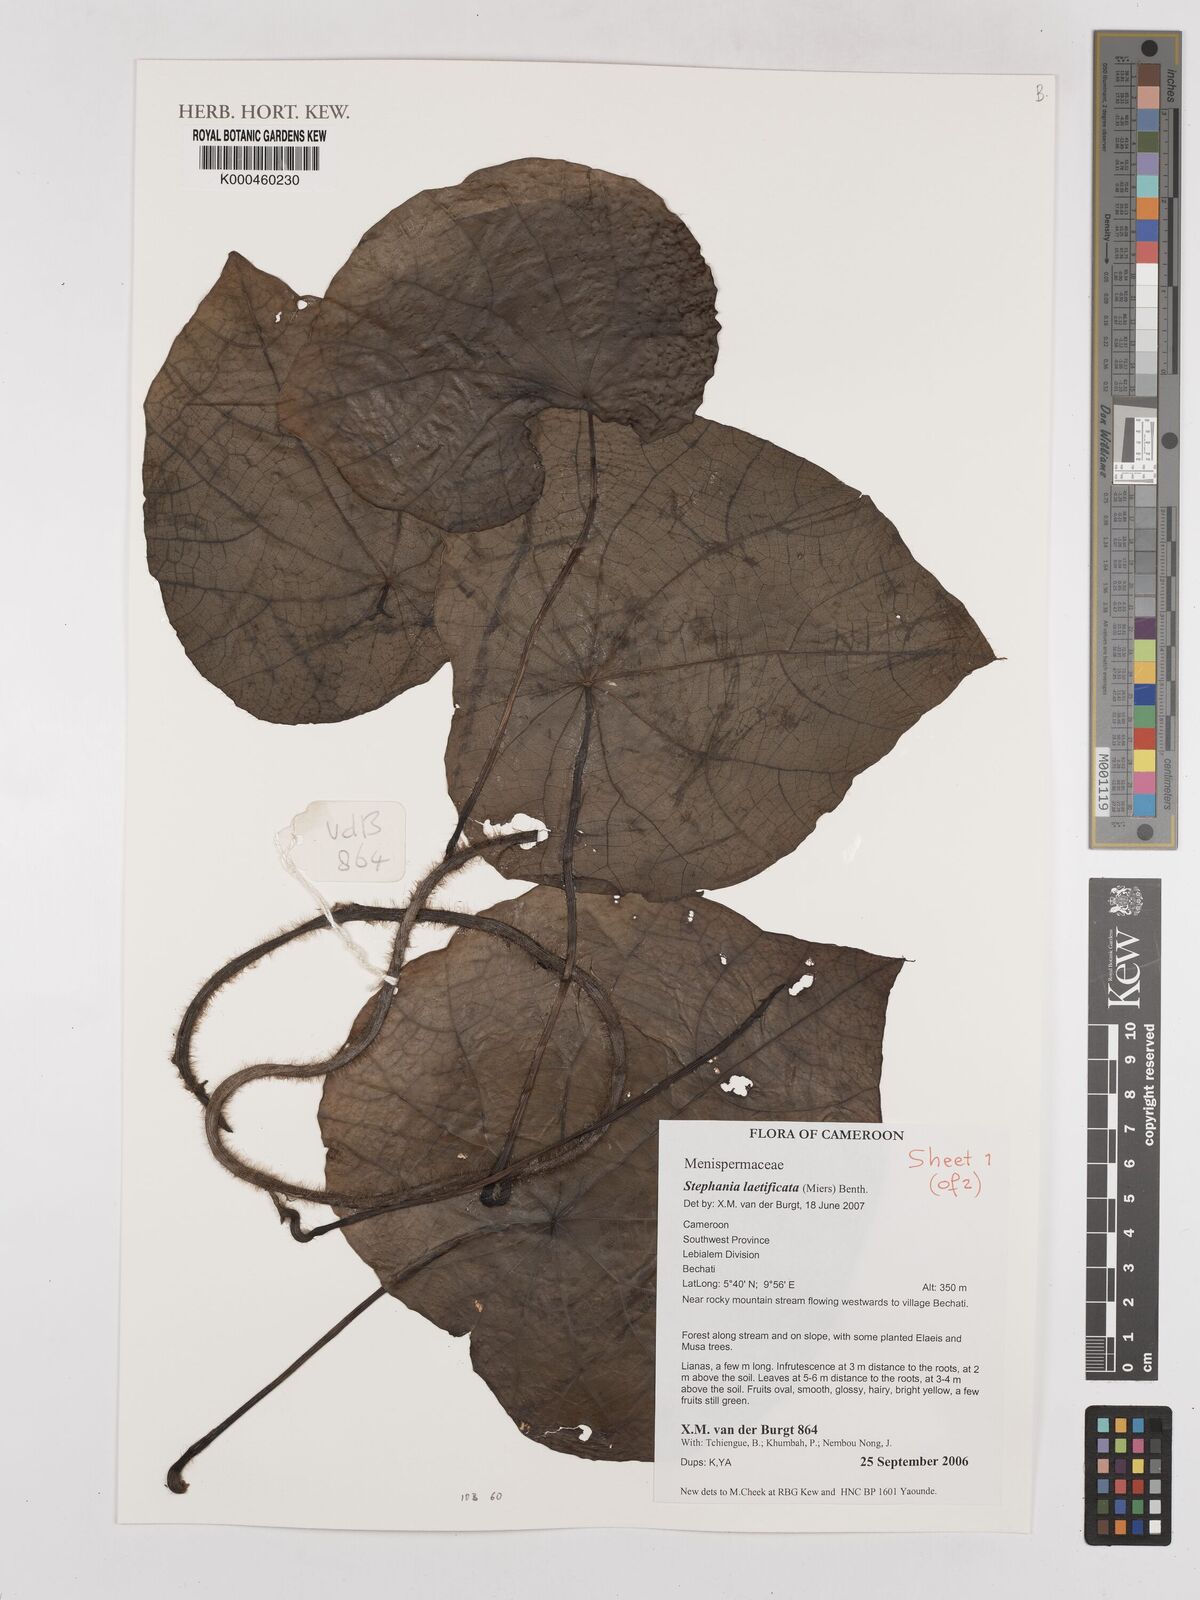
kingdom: Plantae
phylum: Tracheophyta
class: Magnoliopsida
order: Ranunculales
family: Menispermaceae
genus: Perichasma
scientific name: Perichasma laetificata
